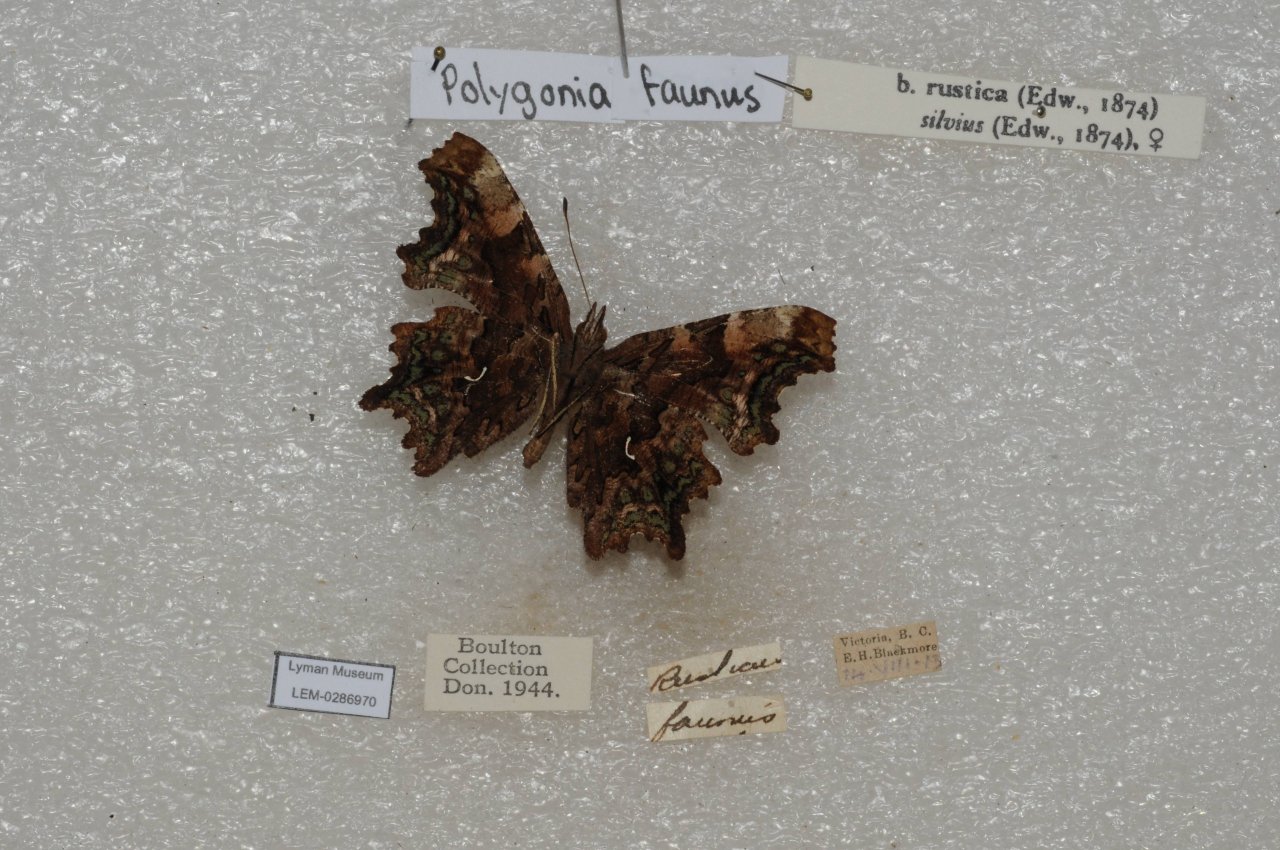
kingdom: Animalia
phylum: Arthropoda
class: Insecta
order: Lepidoptera
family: Nymphalidae
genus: Polygonia
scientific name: Polygonia faunus
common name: Green Comma
